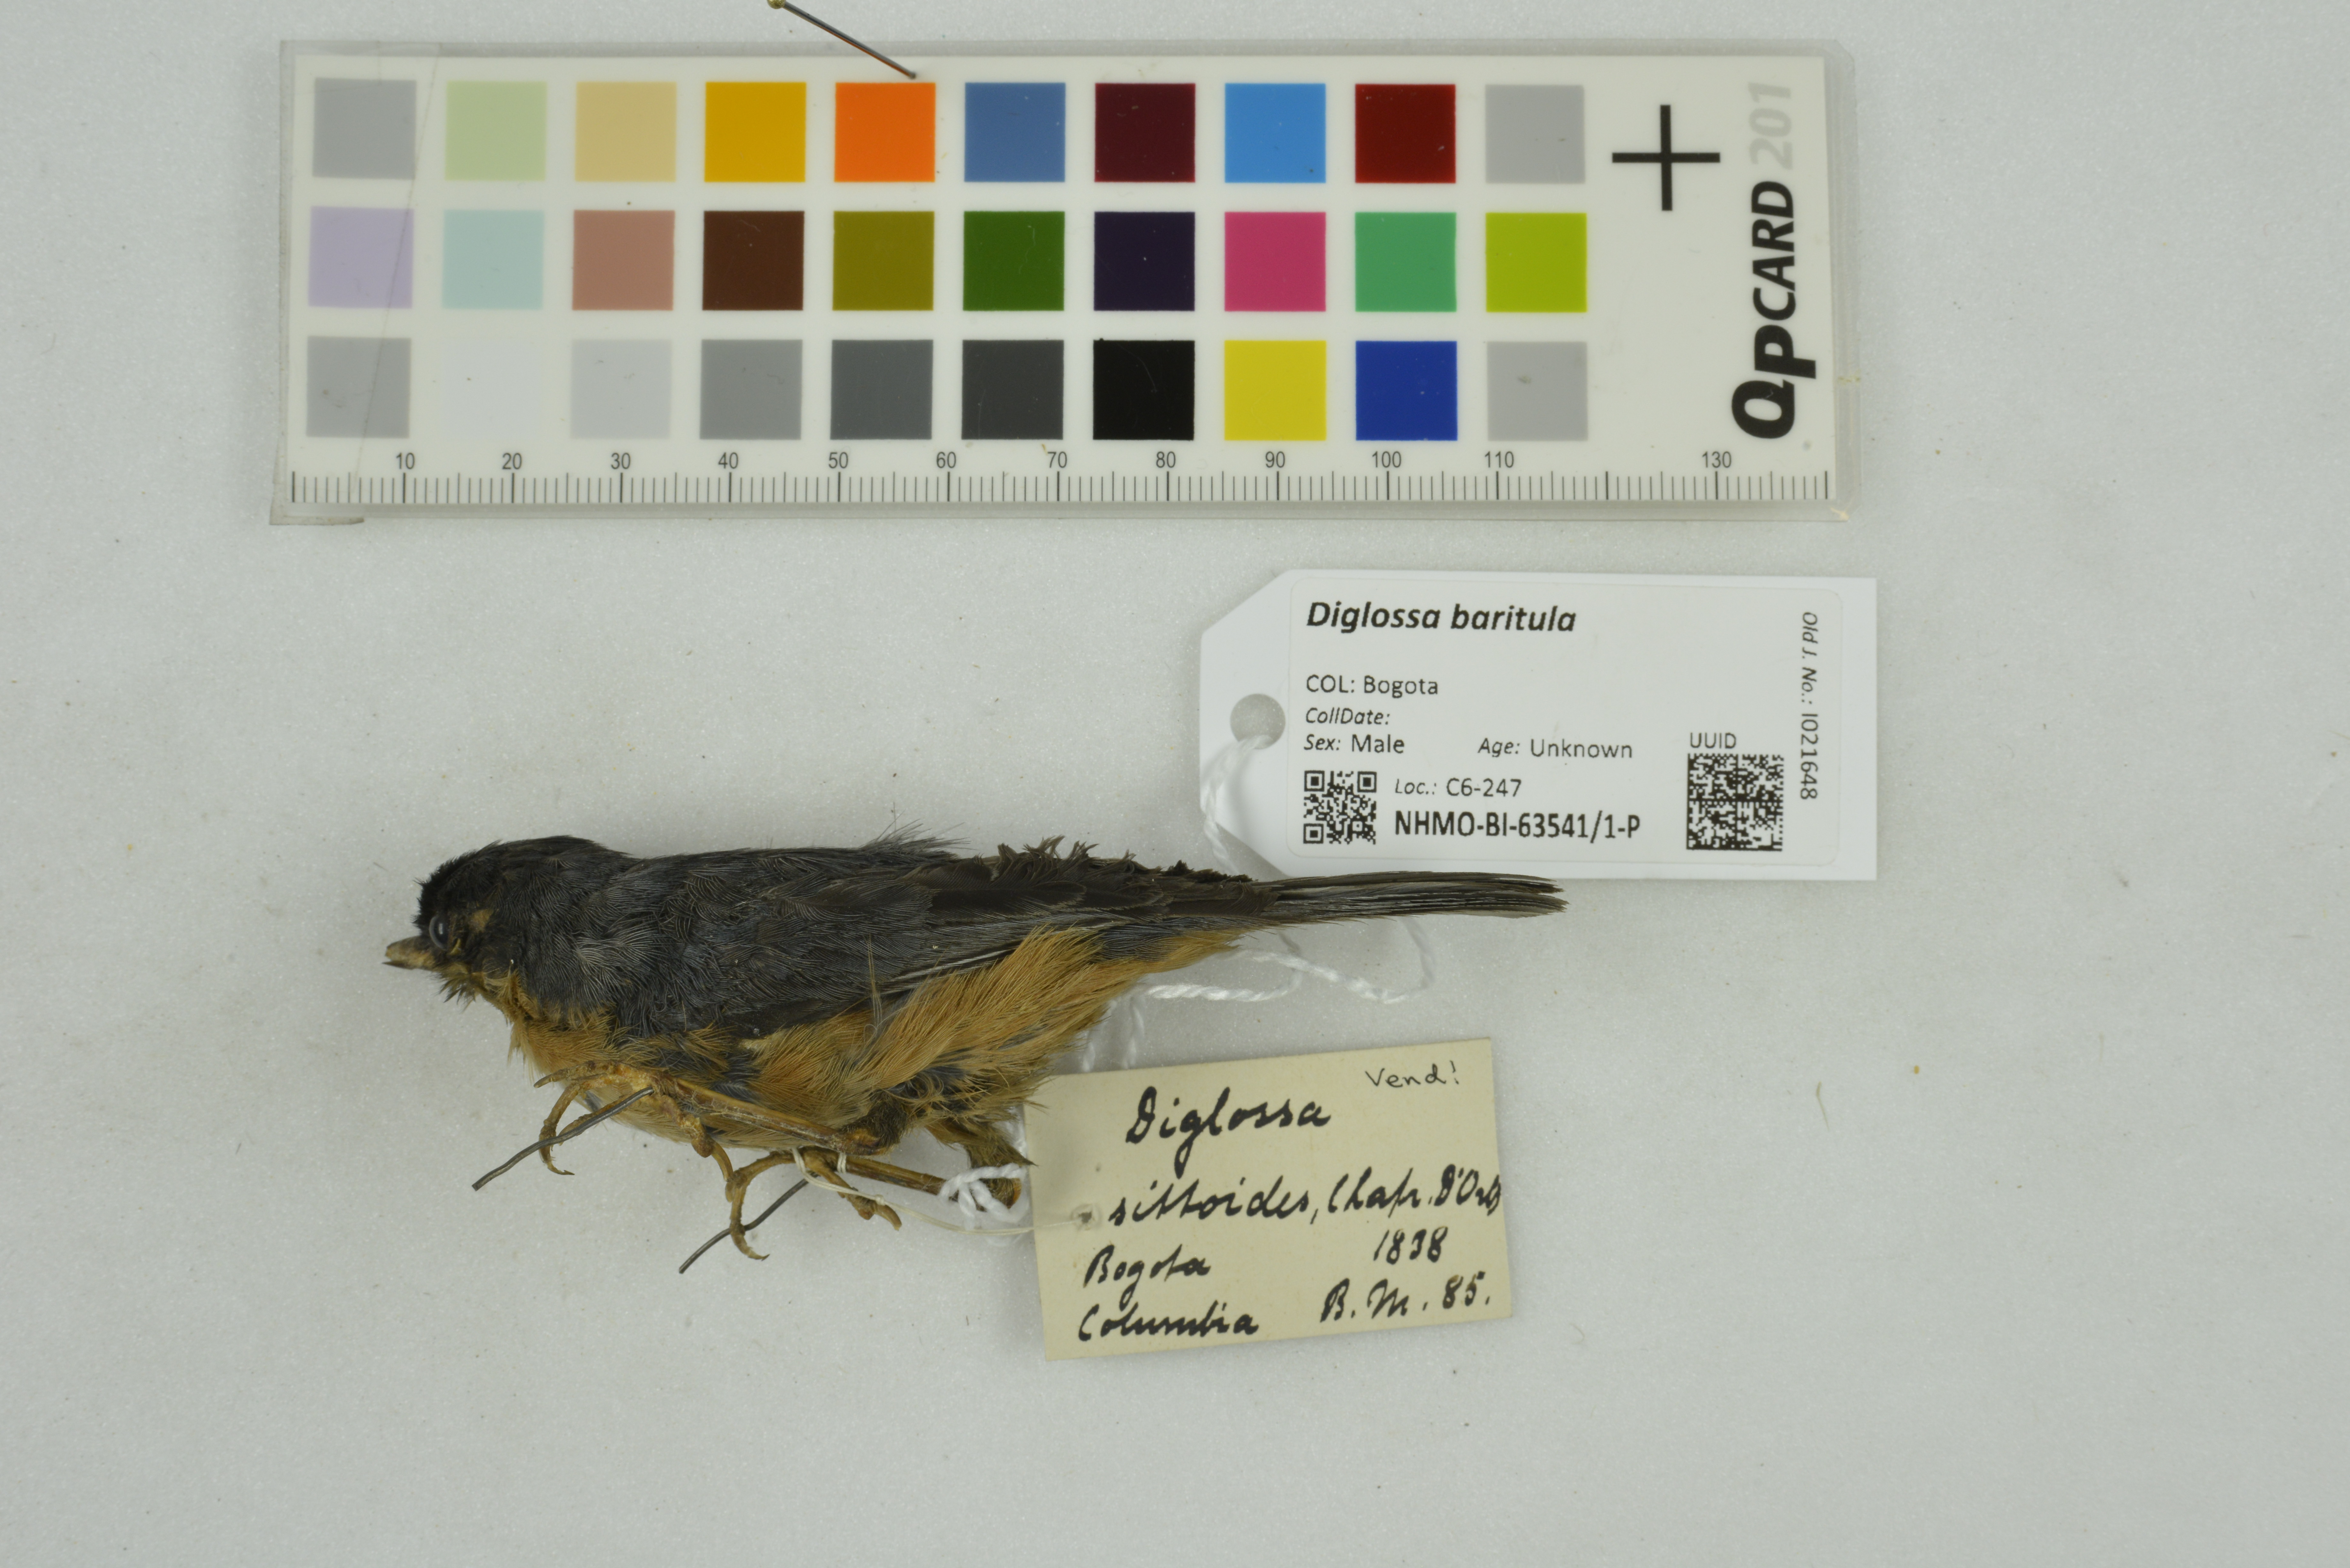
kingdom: Animalia
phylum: Chordata
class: Aves
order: Passeriformes
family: Thraupidae
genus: Diglossa
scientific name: Diglossa baritula
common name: Cinnamon-bellied flowerpiercer
